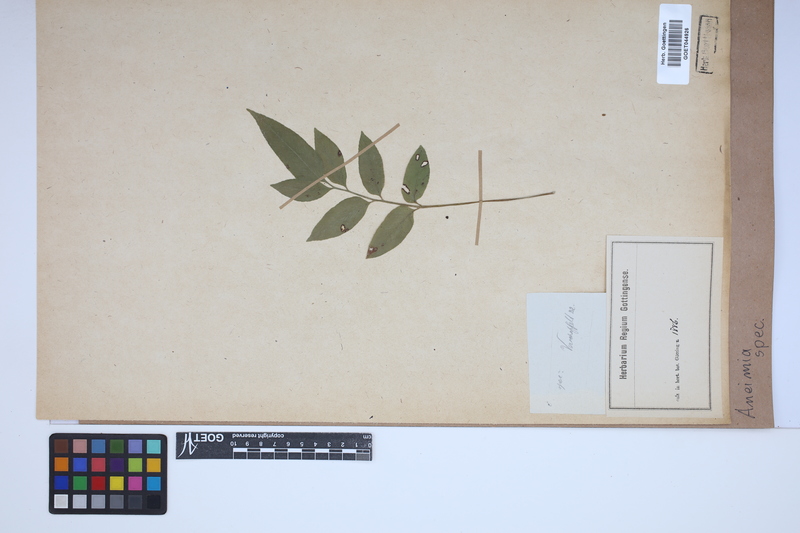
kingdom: Plantae
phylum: Tracheophyta
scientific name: Tracheophyta
